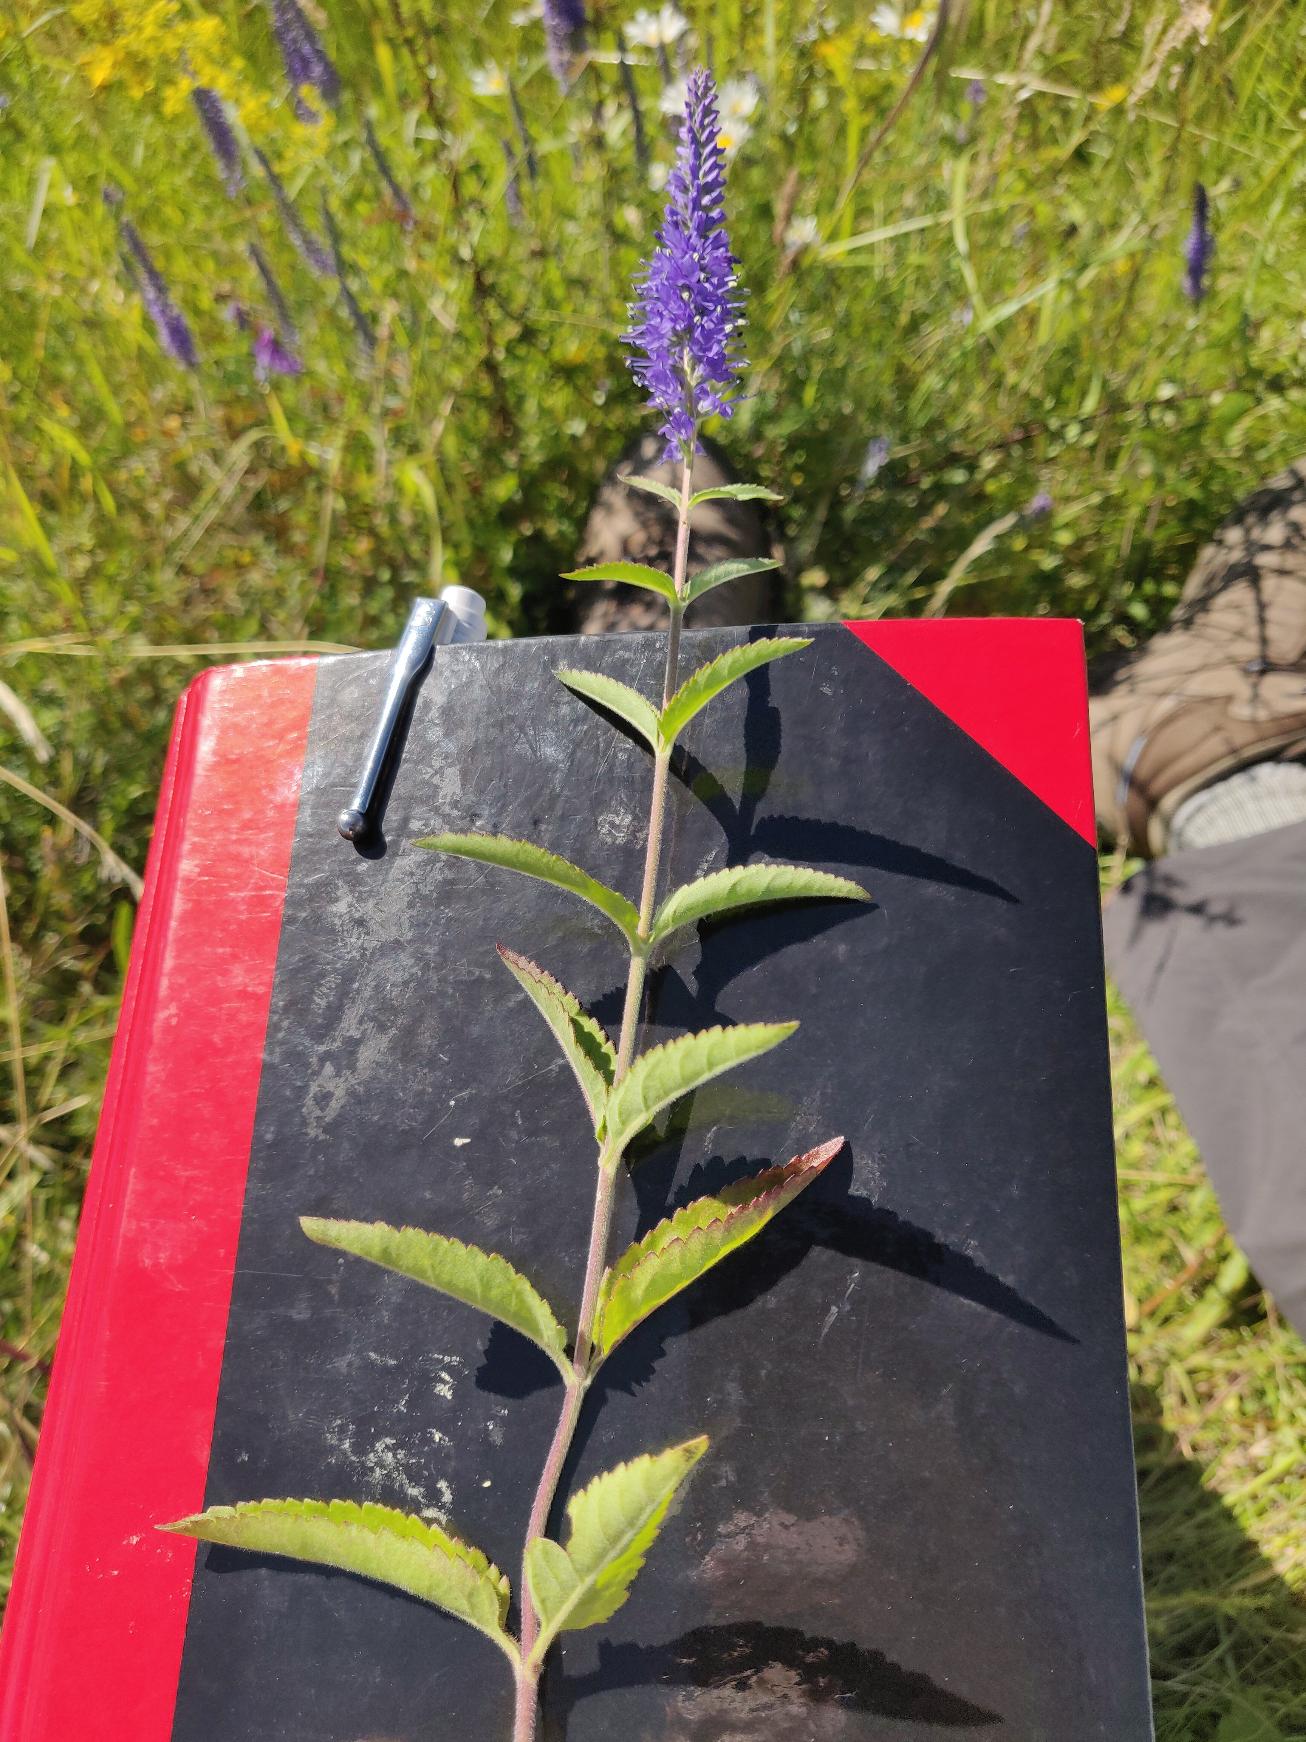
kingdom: Plantae
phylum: Tracheophyta
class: Magnoliopsida
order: Lamiales
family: Plantaginaceae
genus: Veronica
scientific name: Veronica spicata
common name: Aks-ærenpris
